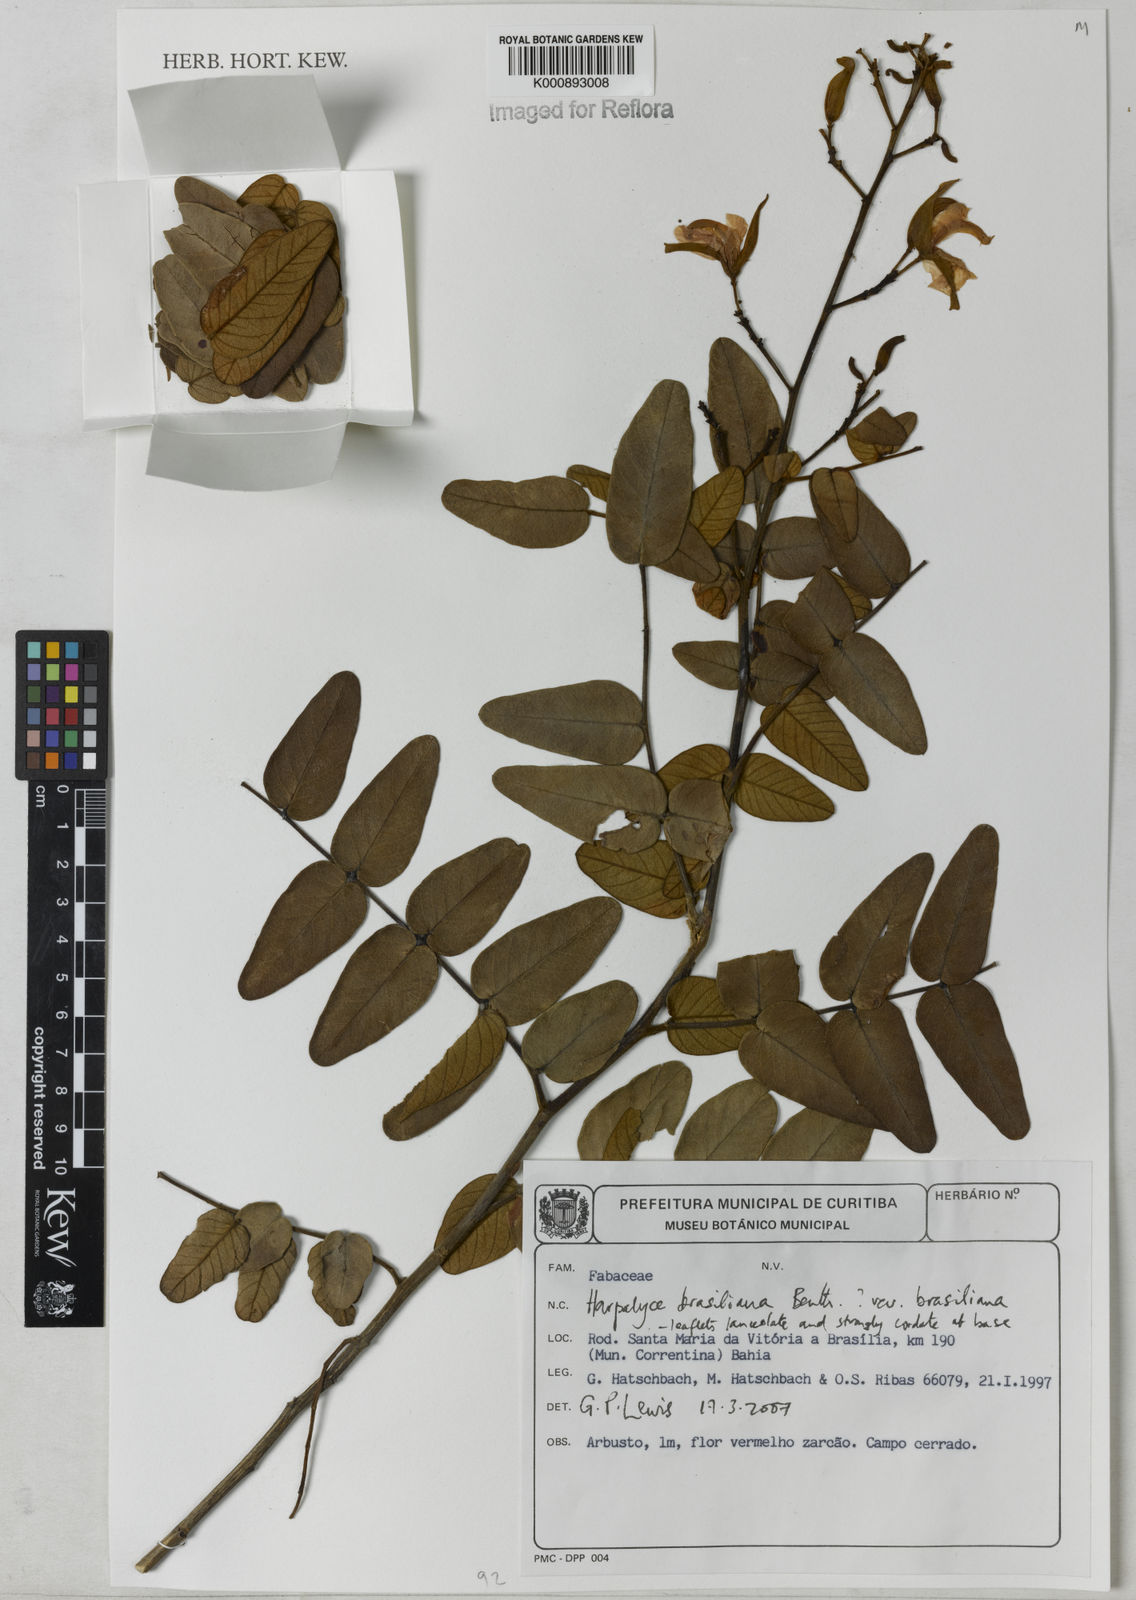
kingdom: Plantae
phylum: Tracheophyta
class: Magnoliopsida
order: Fabales
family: Fabaceae
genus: Harpalyce
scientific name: Harpalyce brasiliana
